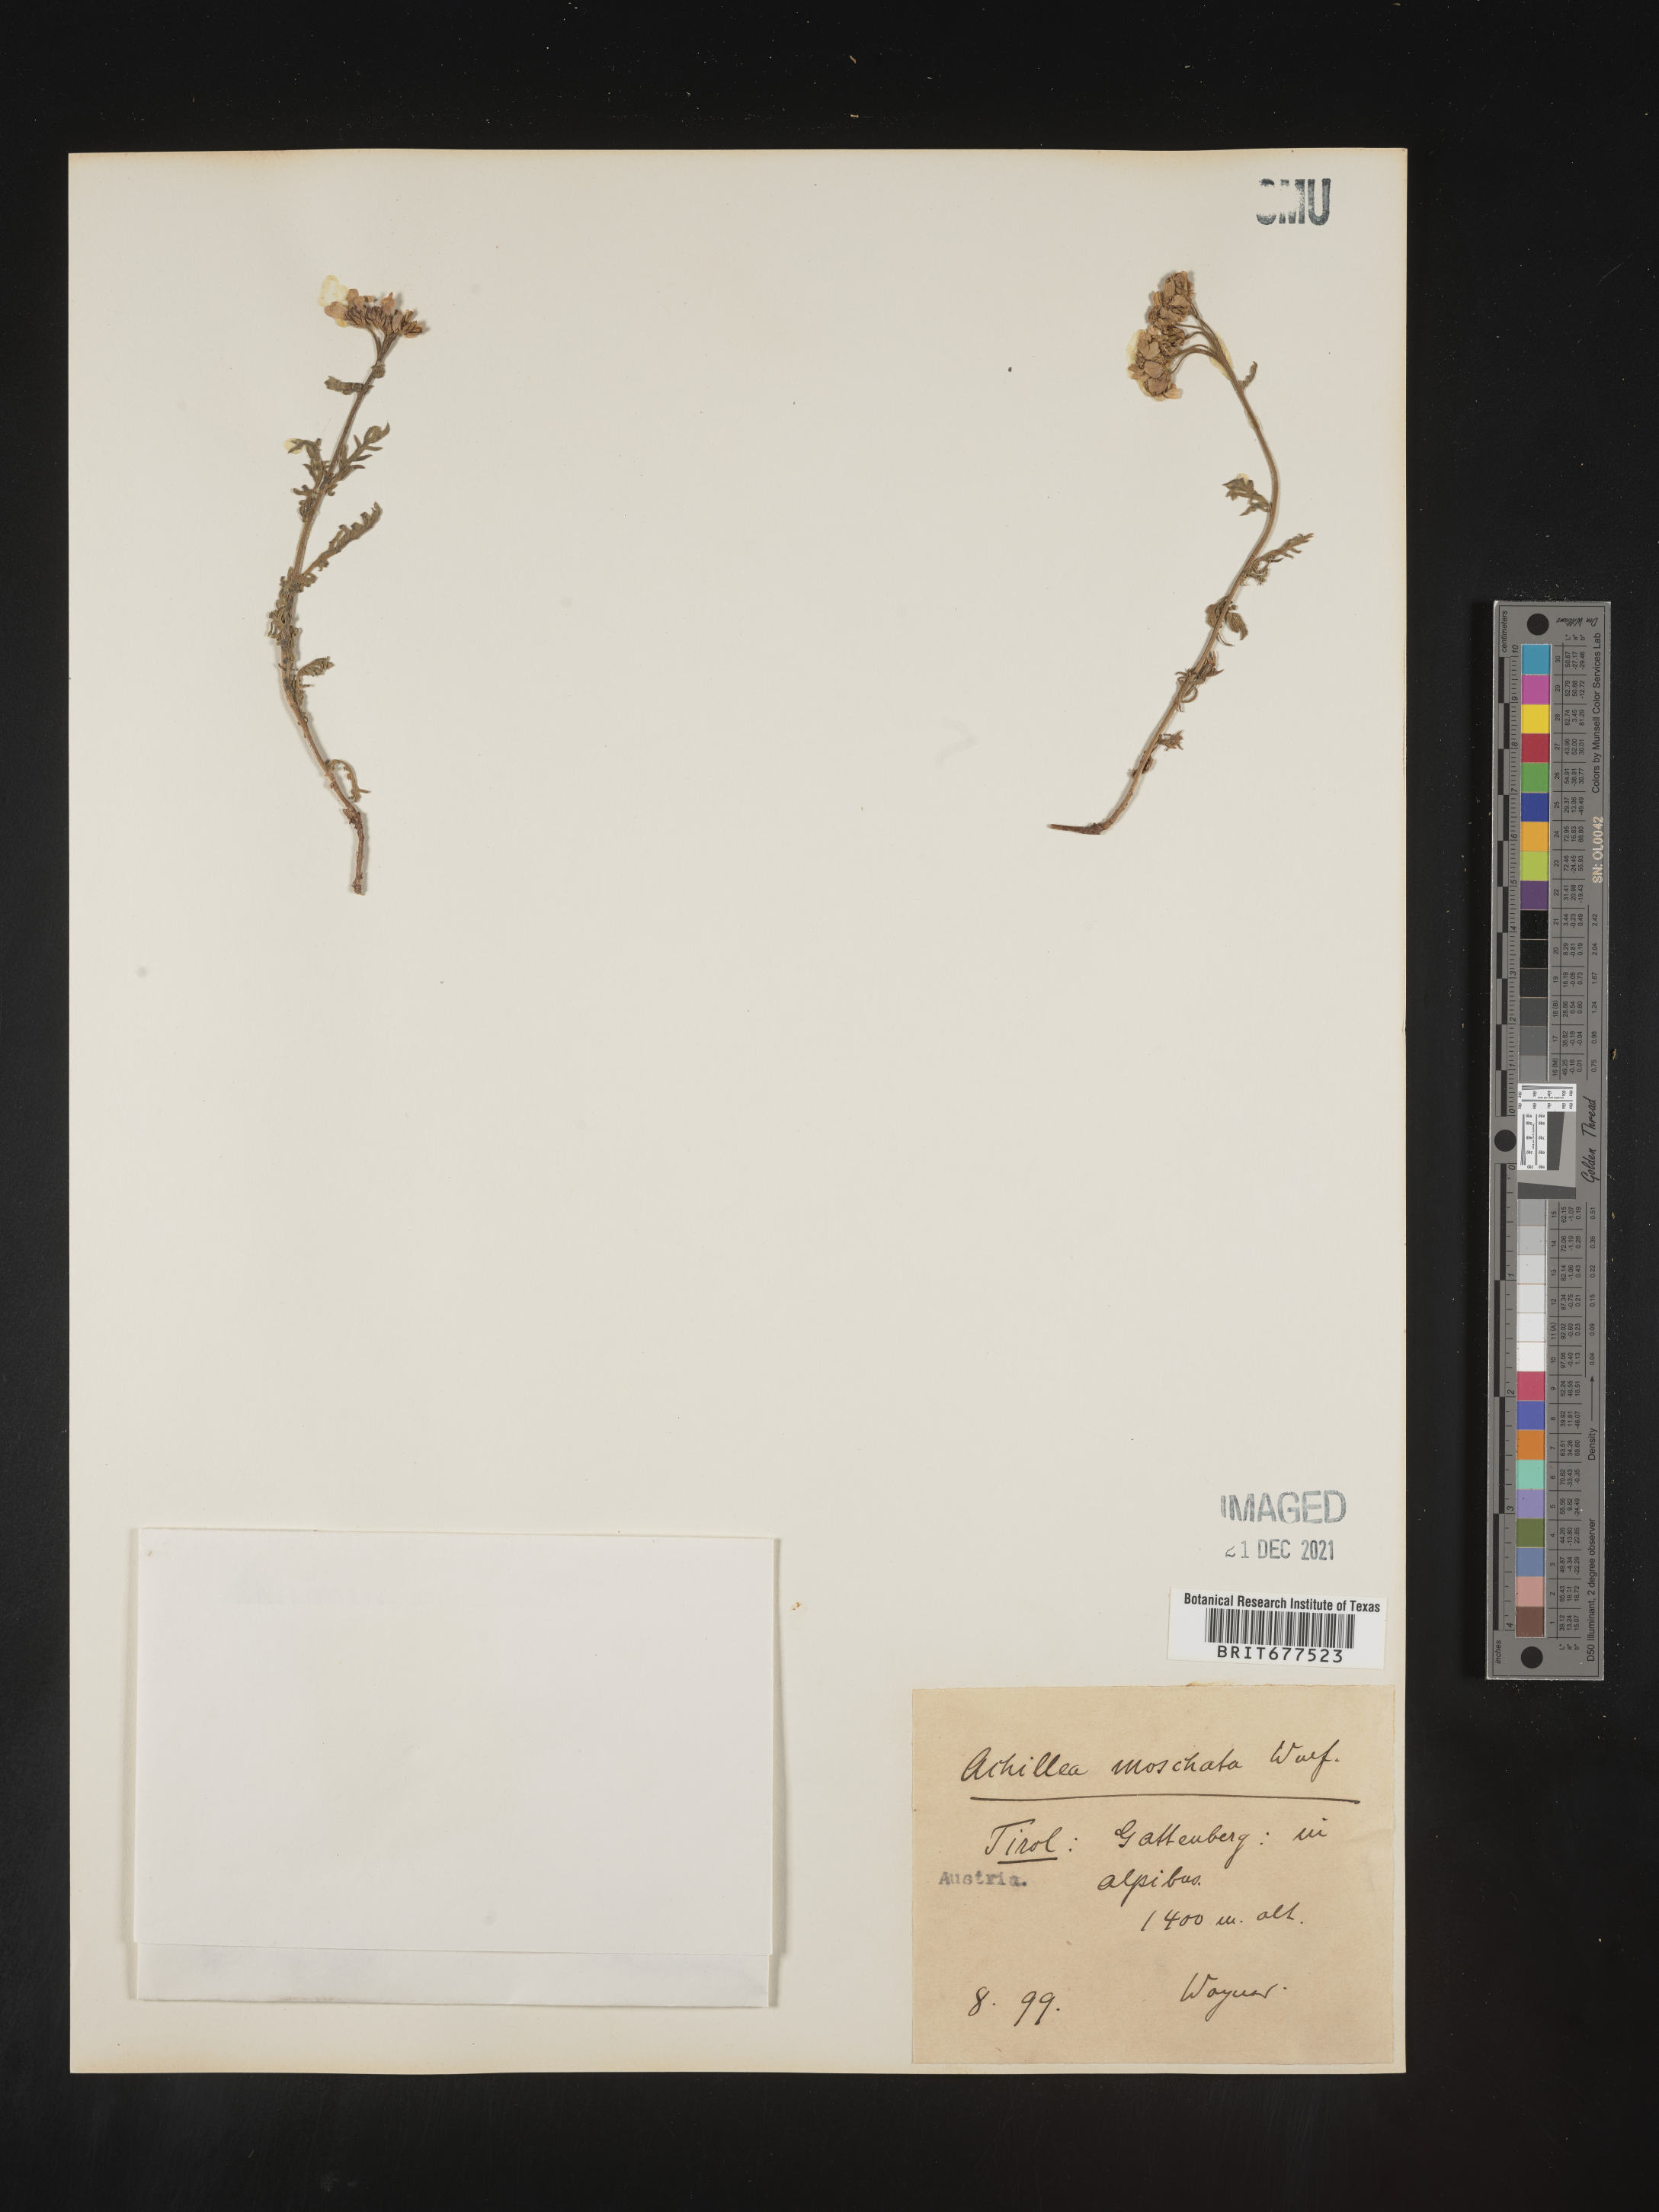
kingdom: Plantae
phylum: Tracheophyta
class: Magnoliopsida
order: Asterales
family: Asteraceae
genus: Achillea
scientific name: Achillea
